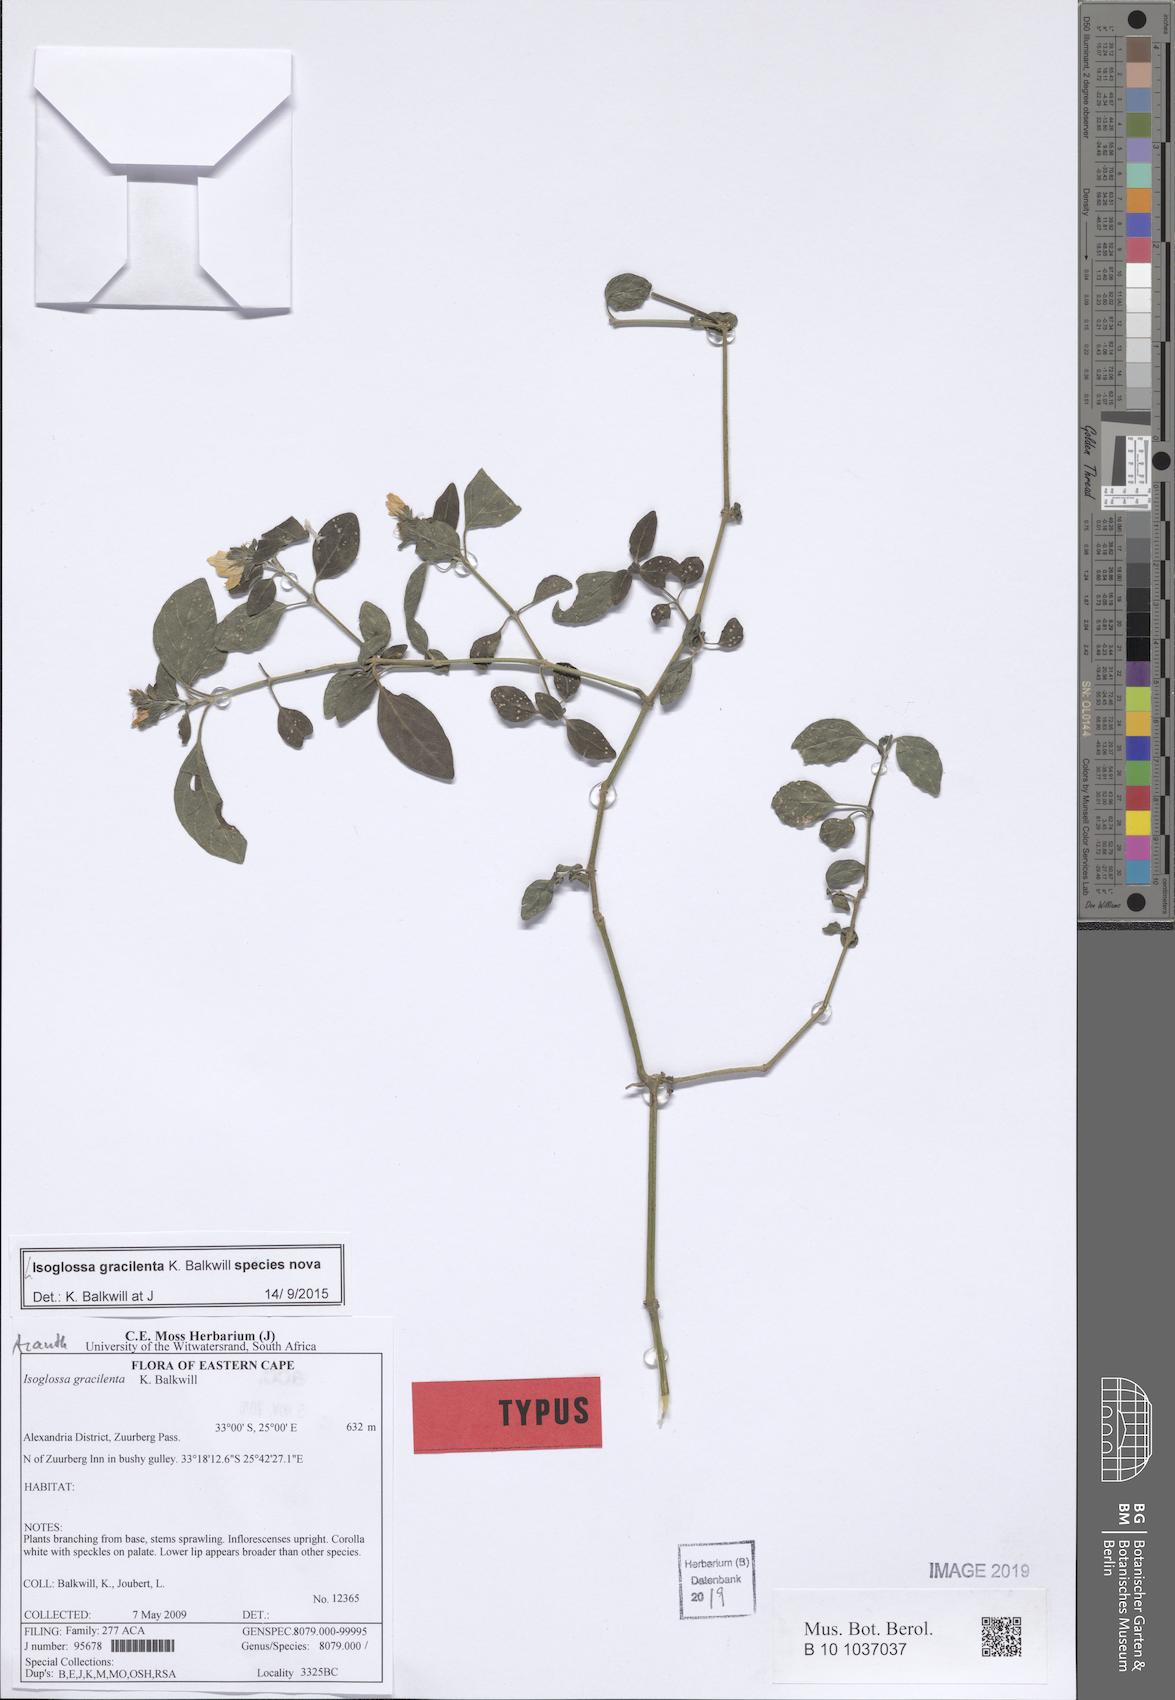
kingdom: Plantae
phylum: Tracheophyta
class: Magnoliopsida
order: Lamiales
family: Acanthaceae
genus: Isoglossa
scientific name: Isoglossa
